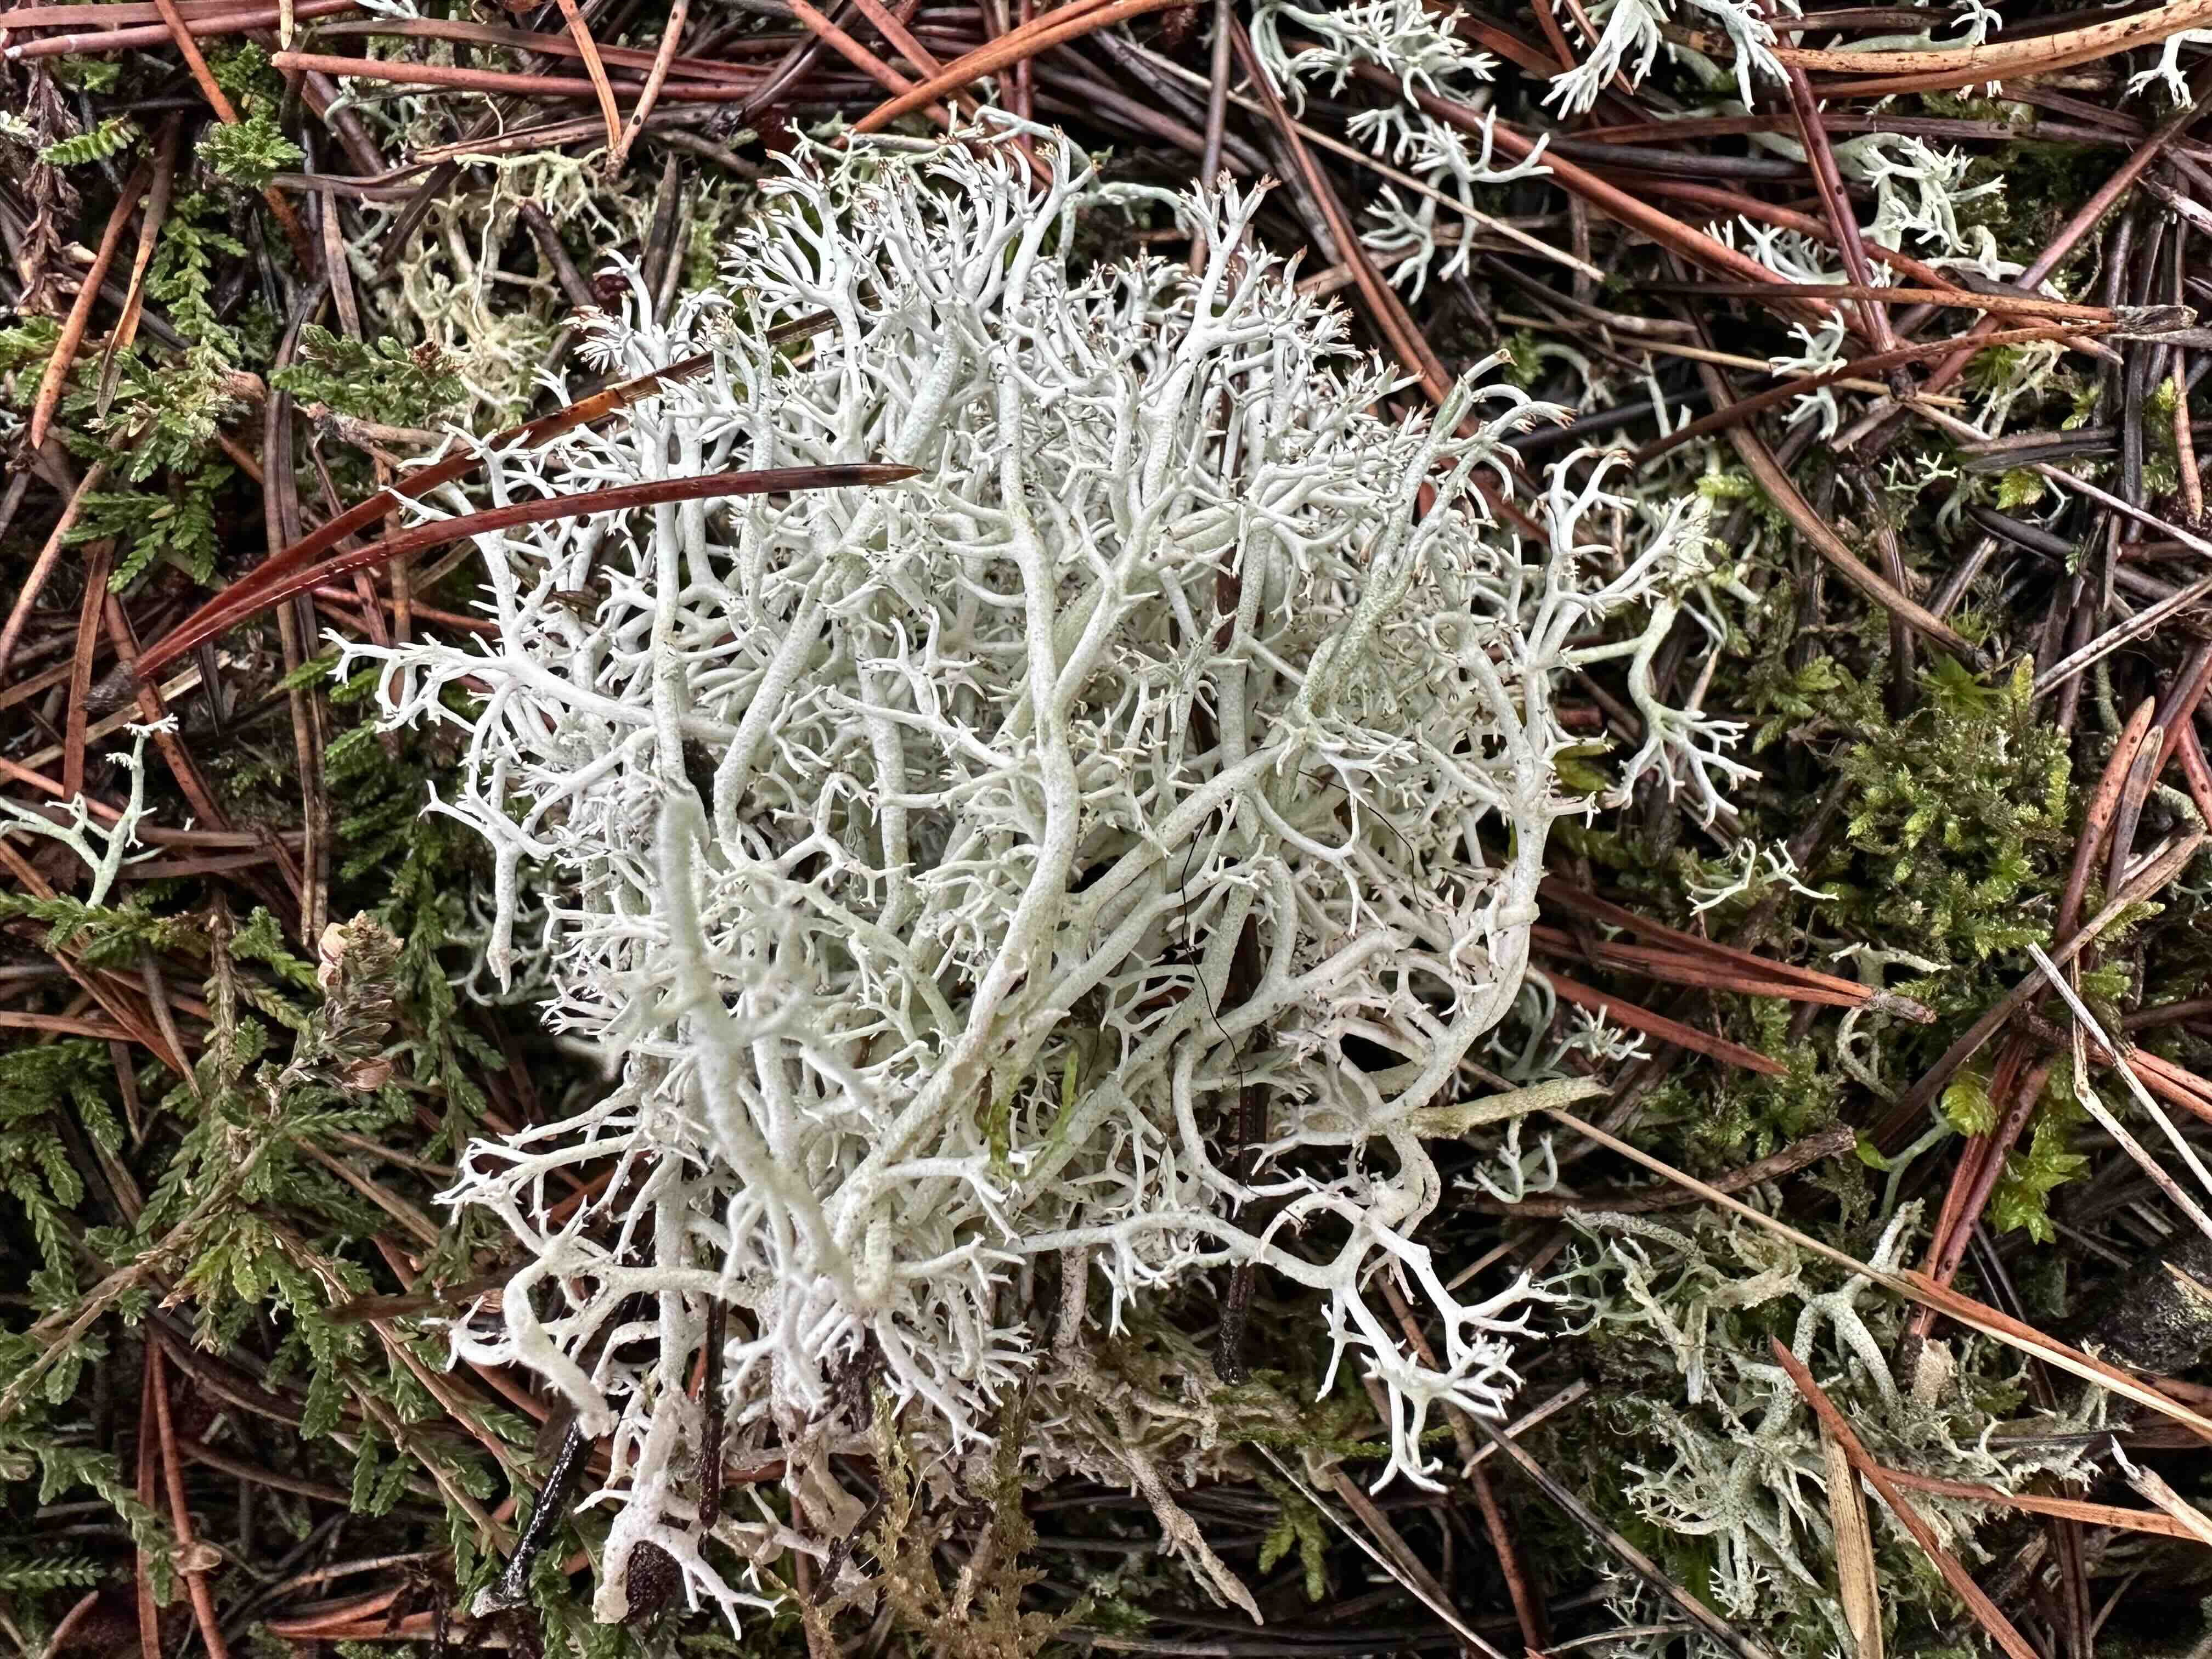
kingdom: Fungi
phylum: Ascomycota
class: Lecanoromycetes
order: Lecanorales
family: Cladoniaceae
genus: Cladonia
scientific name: Cladonia rangiferina
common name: askegrå rensdyrlav
